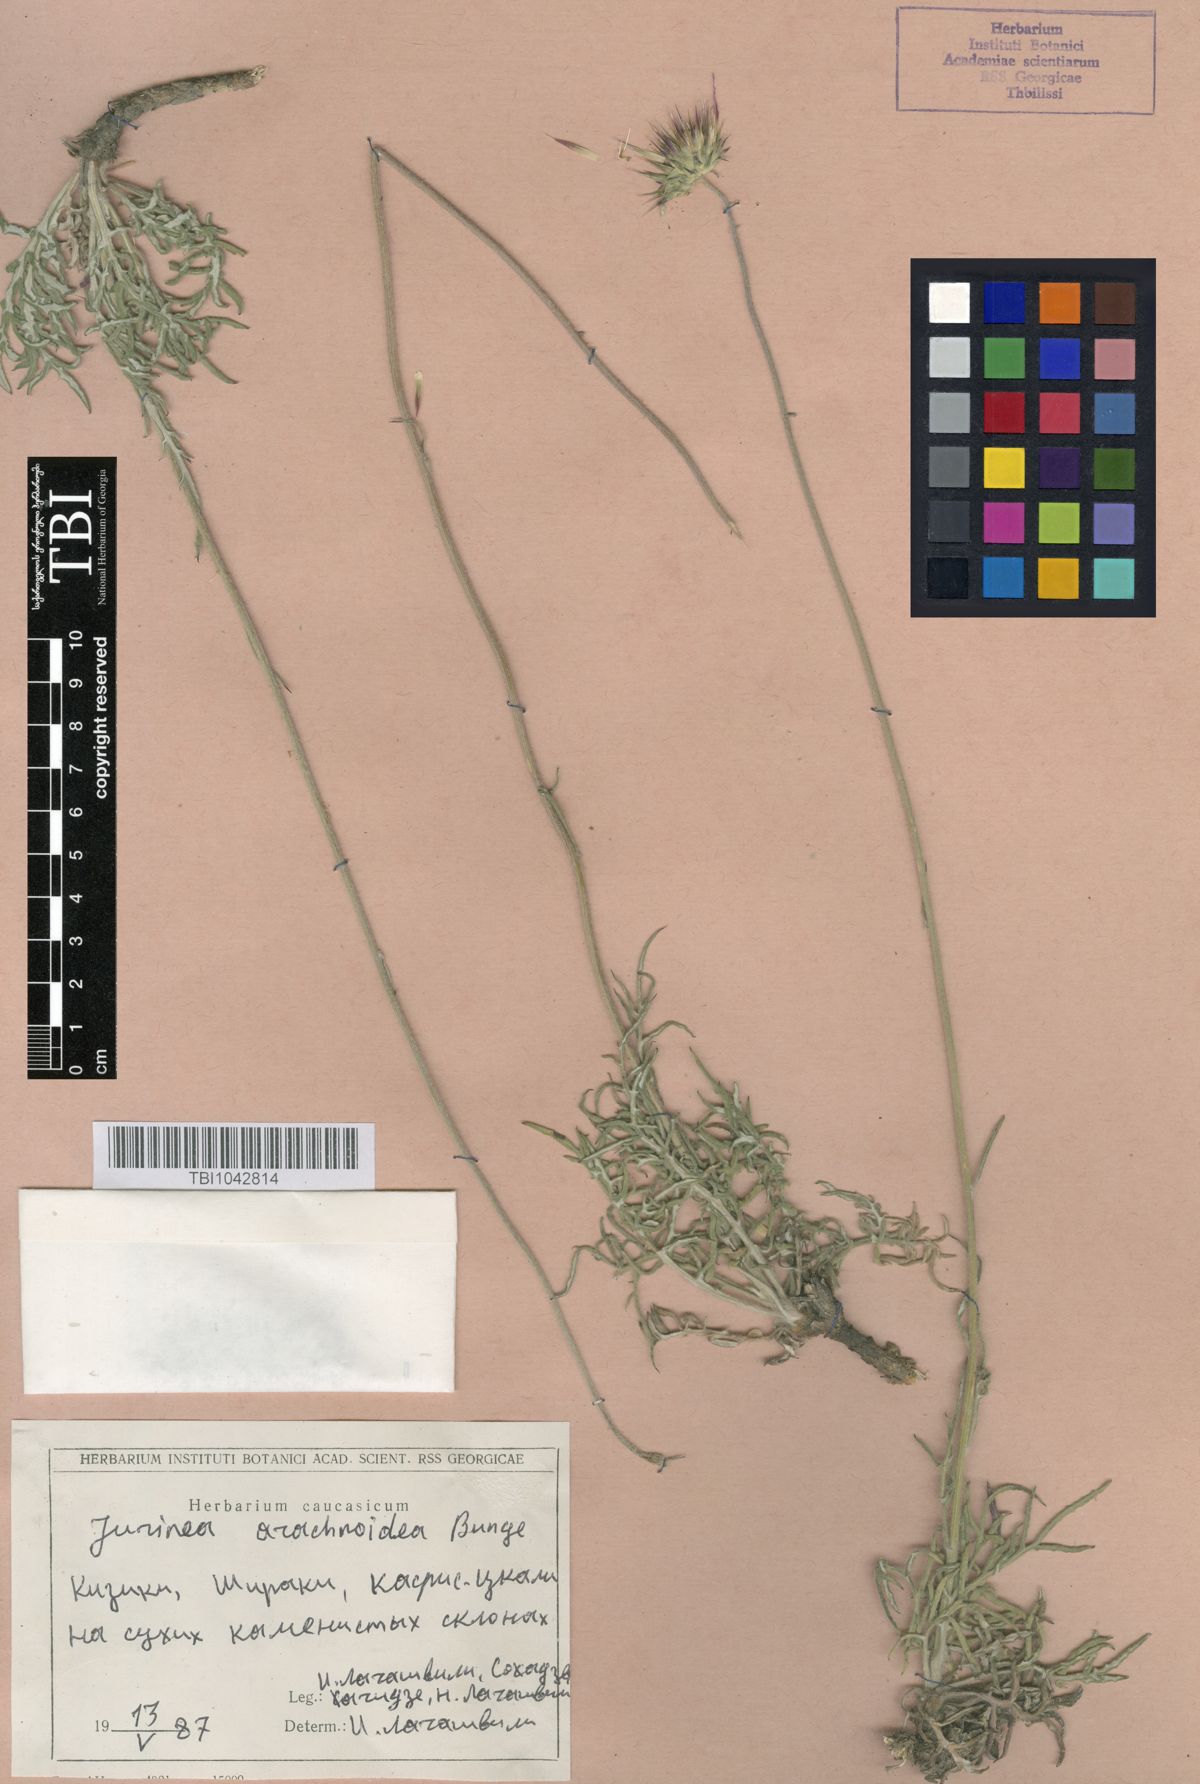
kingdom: Plantae
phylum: Tracheophyta
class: Magnoliopsida
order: Asterales
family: Asteraceae
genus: Jurinea
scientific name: Jurinea blanda
